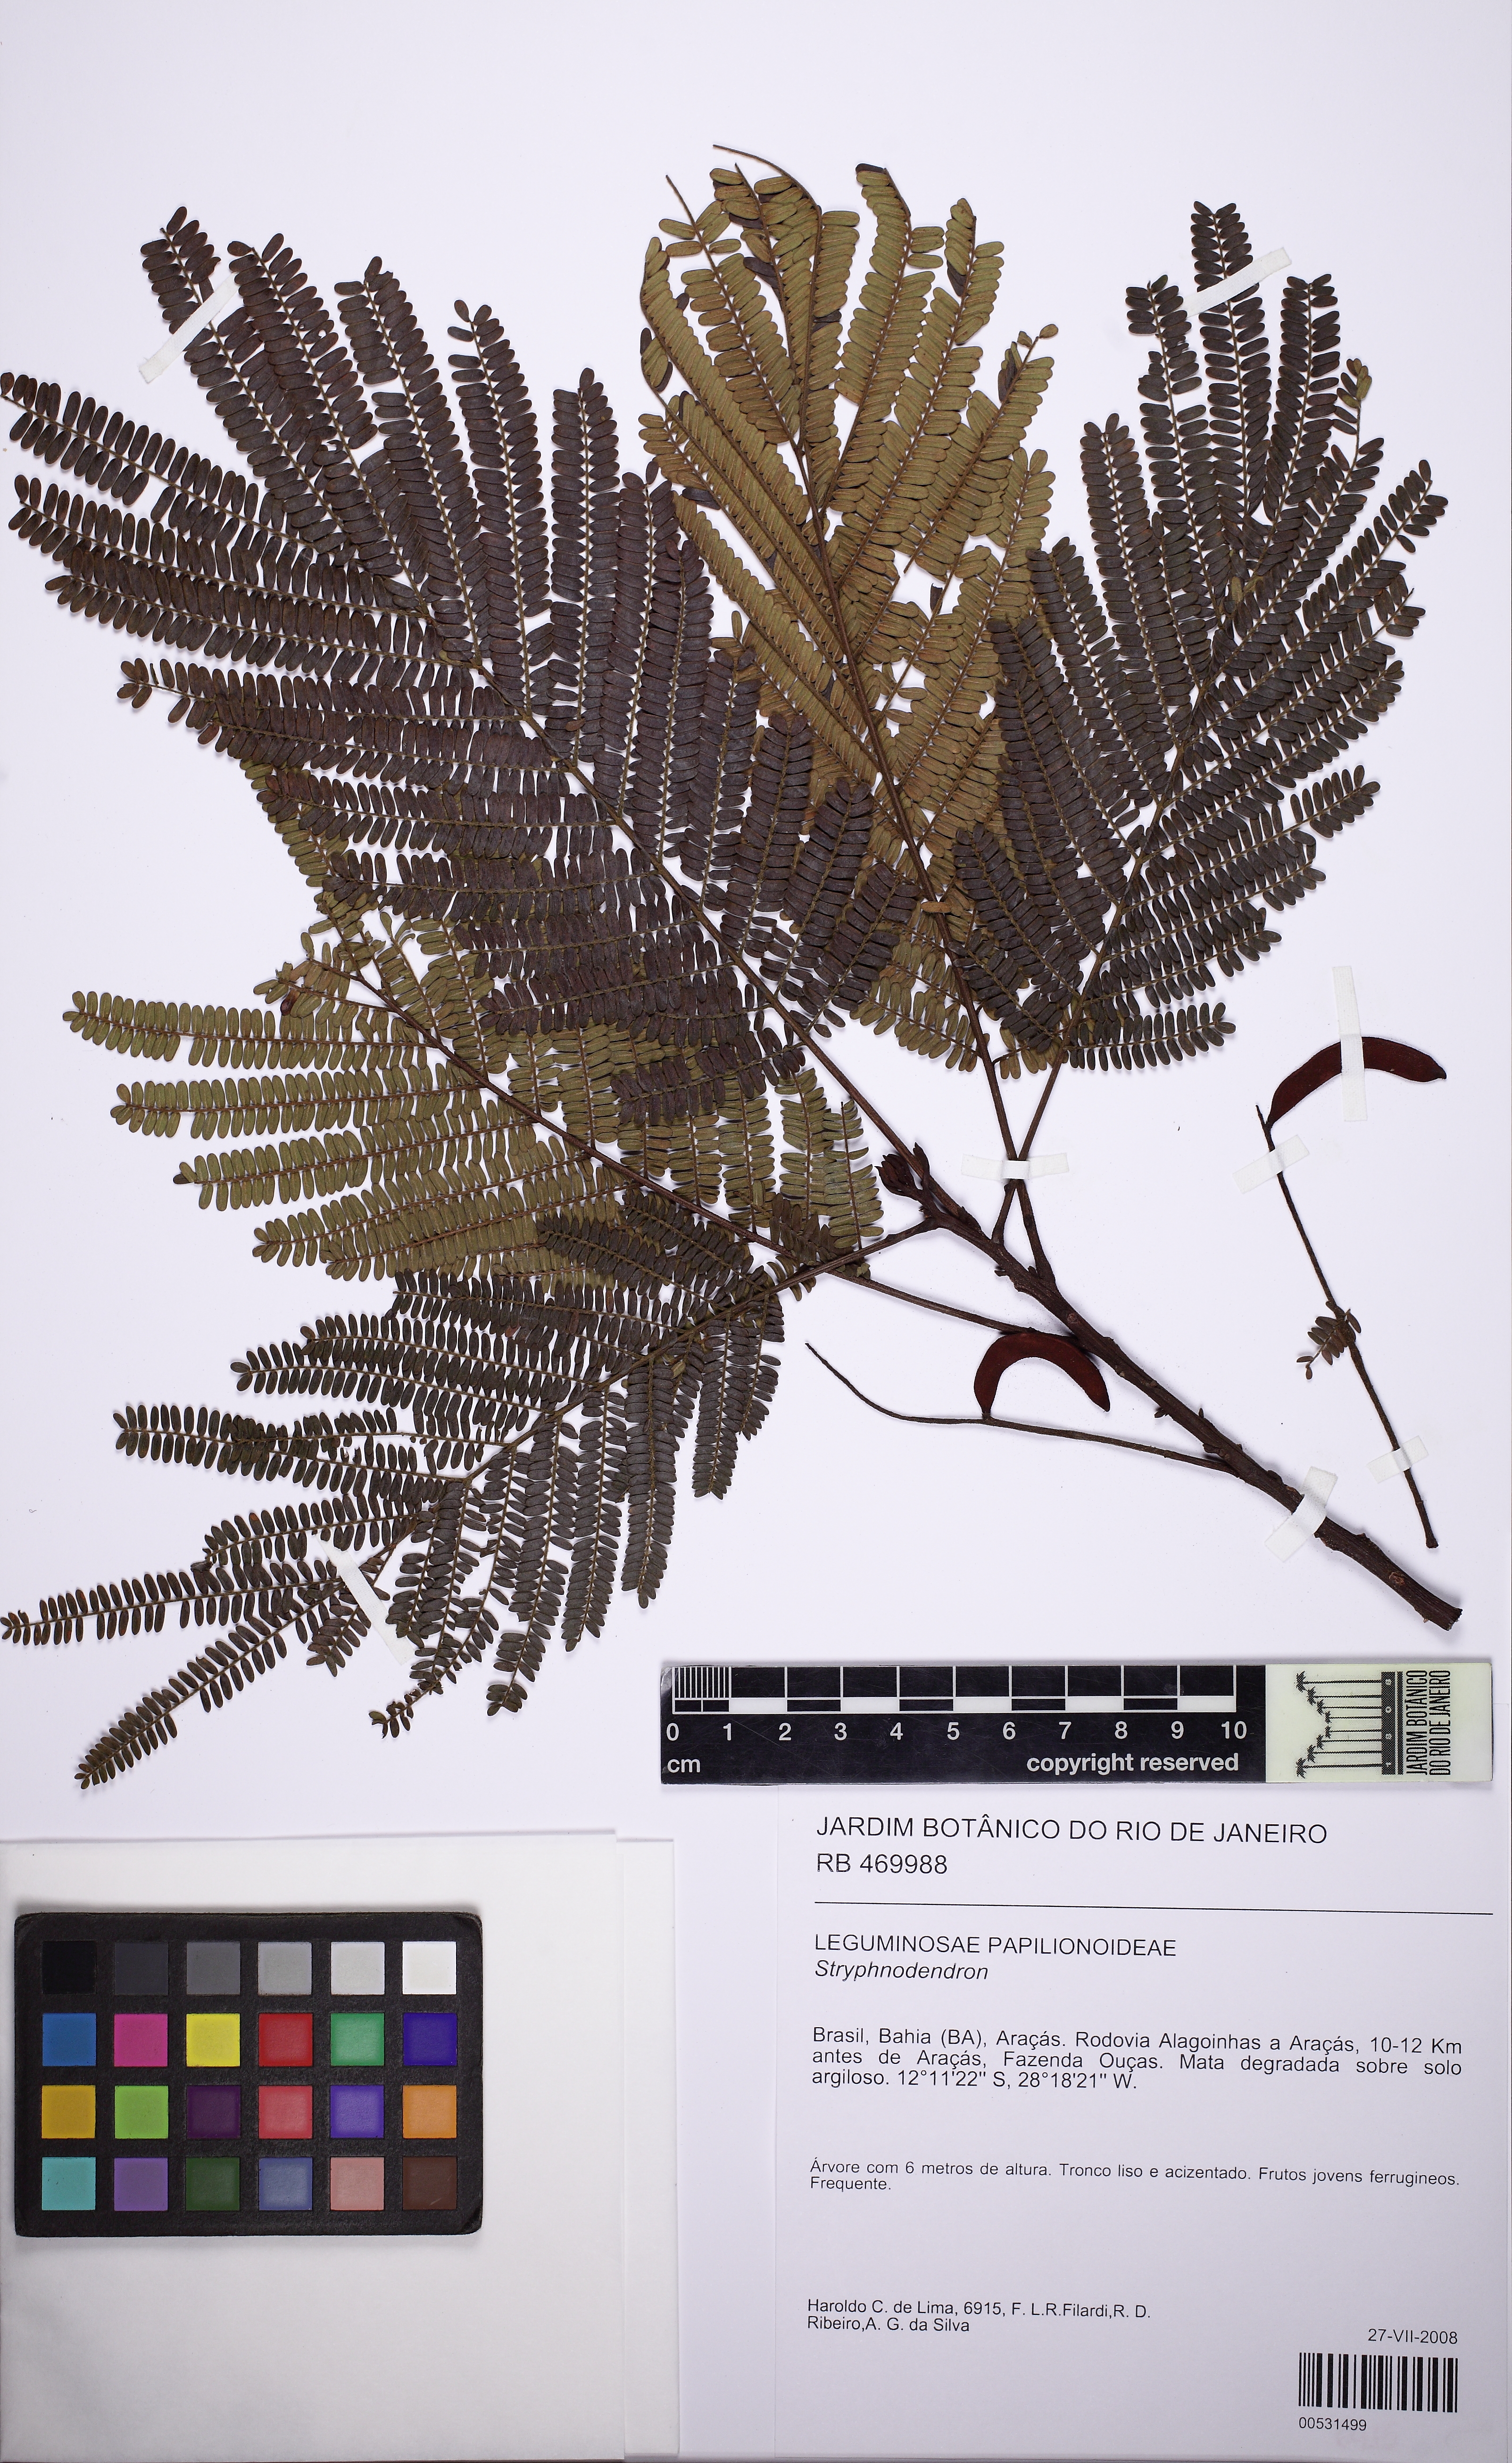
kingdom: Plantae
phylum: Tracheophyta
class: Magnoliopsida
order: Fabales
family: Fabaceae
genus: Stryphnodendron
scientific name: Stryphnodendron
